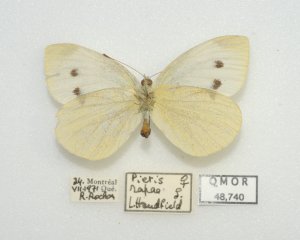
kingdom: Animalia
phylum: Arthropoda
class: Insecta
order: Lepidoptera
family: Pieridae
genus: Pieris
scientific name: Pieris rapae
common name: Cabbage White
